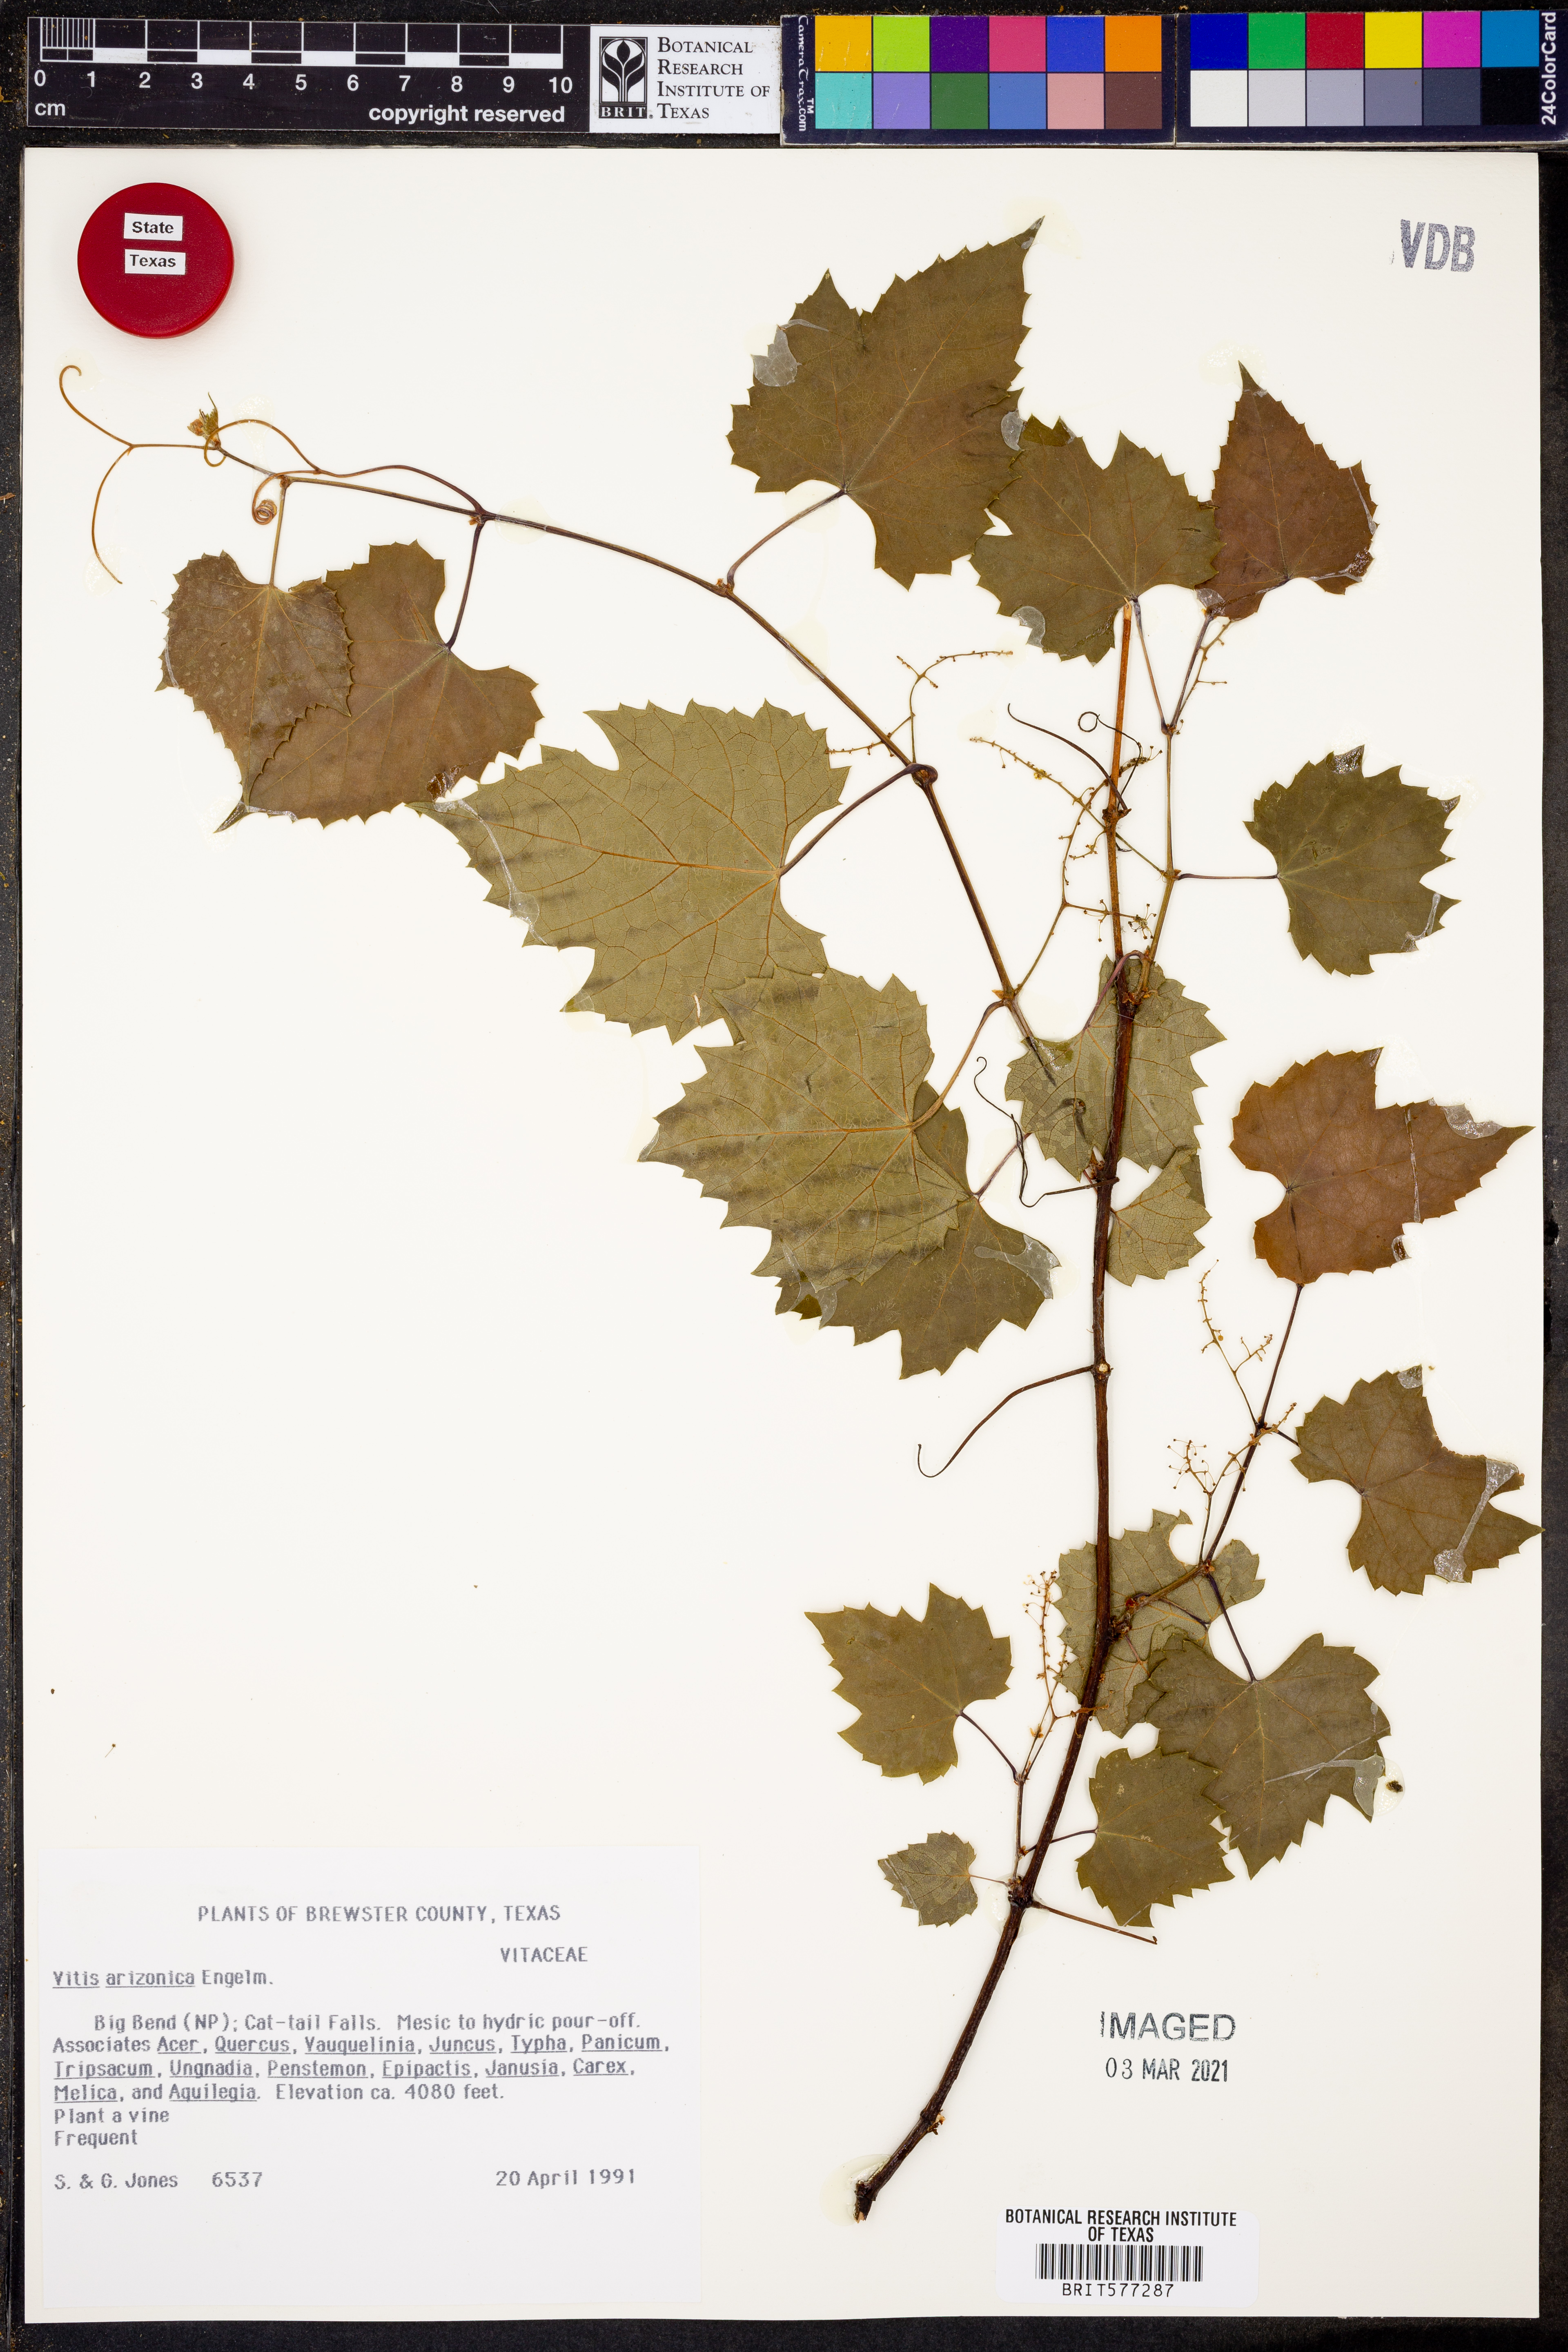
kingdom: Plantae
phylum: Tracheophyta
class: Magnoliopsida
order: Vitales
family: Vitaceae
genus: Vitis
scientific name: Vitis arizonica
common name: Canyon grape
